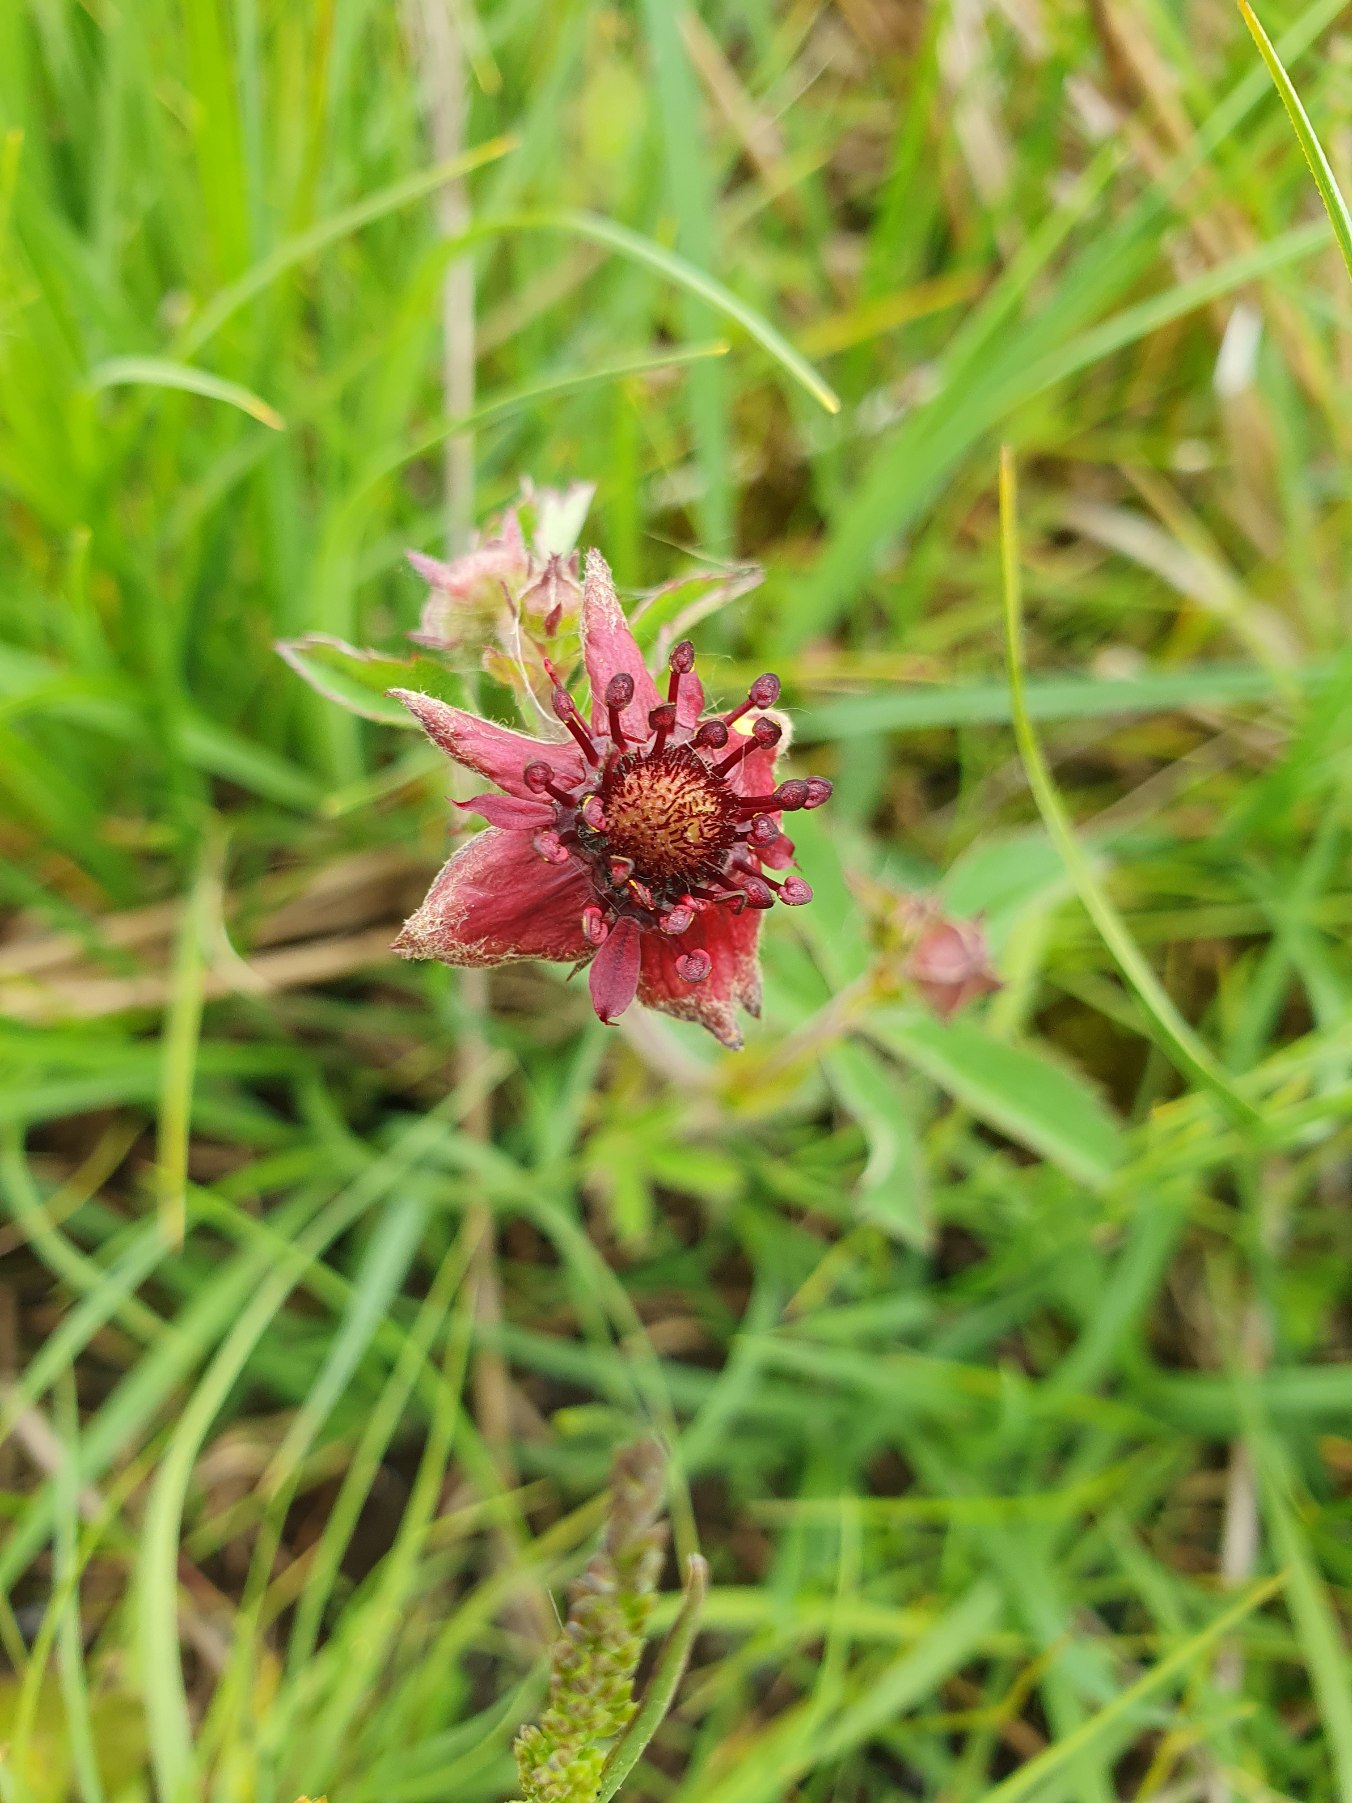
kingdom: Plantae
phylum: Tracheophyta
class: Magnoliopsida
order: Rosales
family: Rosaceae
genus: Comarum
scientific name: Comarum palustre
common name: Kragefod
